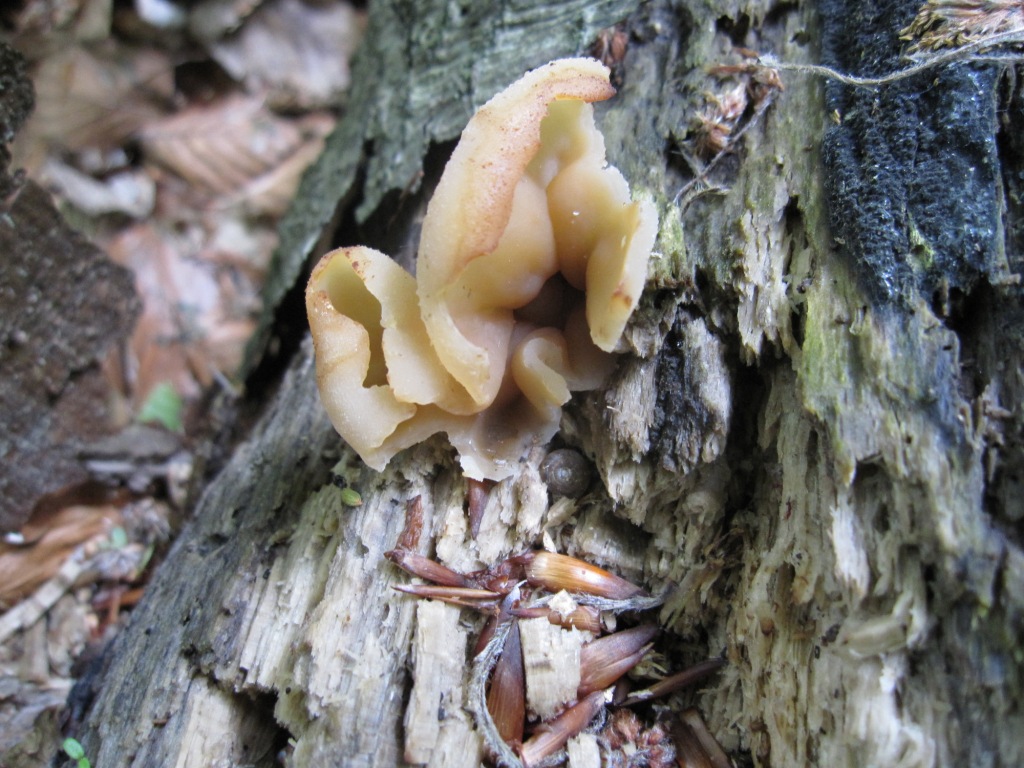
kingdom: Fungi
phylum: Ascomycota
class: Pezizomycetes
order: Pezizales
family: Pezizaceae
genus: Peziza
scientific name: Peziza varia
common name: Ved-bægersvamp
